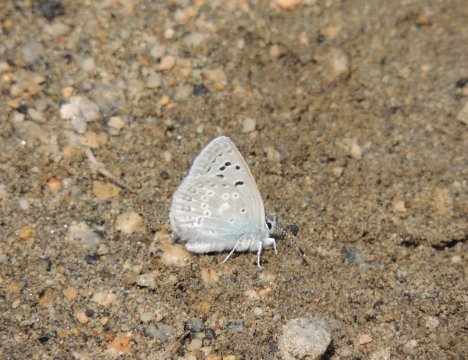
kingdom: Animalia
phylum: Arthropoda
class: Insecta
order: Lepidoptera
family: Lycaenidae
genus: Icaricia
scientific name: Icaricia icarioides
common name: Boisduval's Blue
